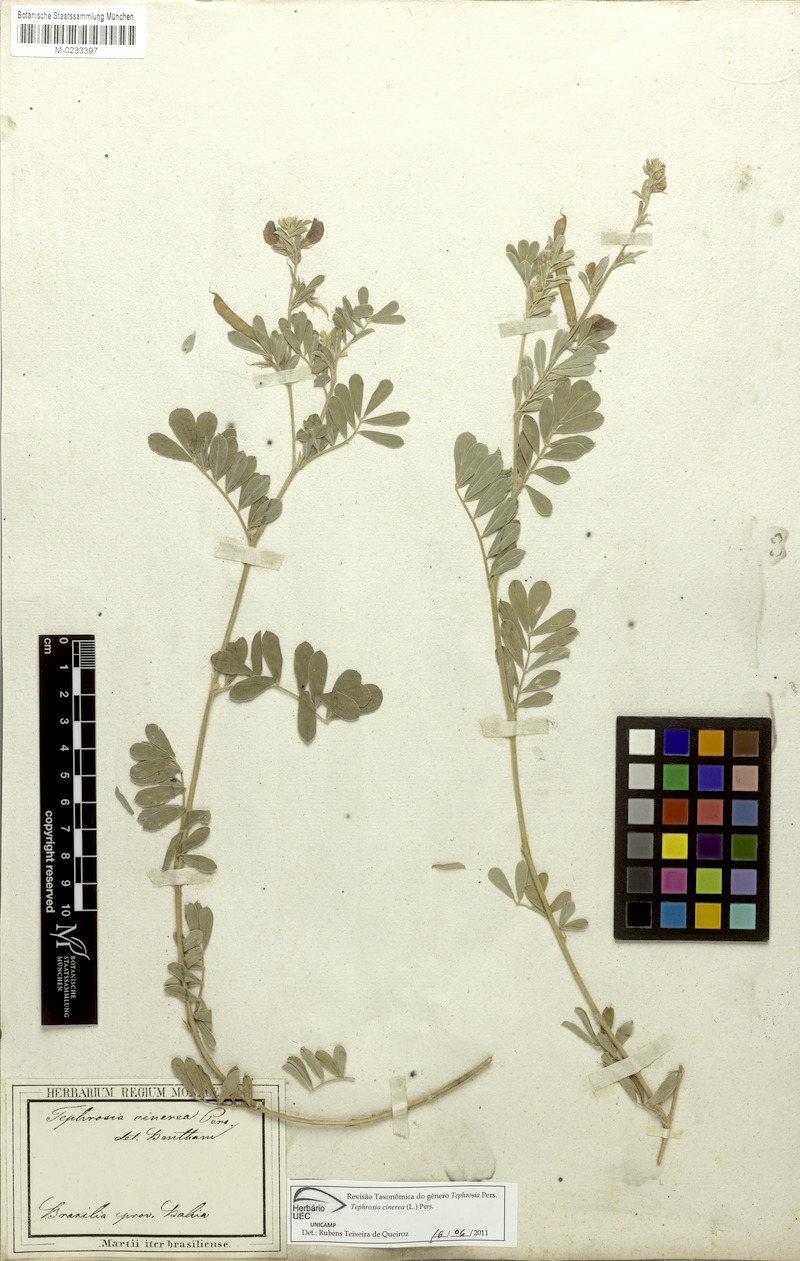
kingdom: Plantae
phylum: Tracheophyta
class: Magnoliopsida
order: Fabales
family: Fabaceae
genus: Tephrosia
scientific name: Tephrosia cinerea
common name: Ashen hoarypea
